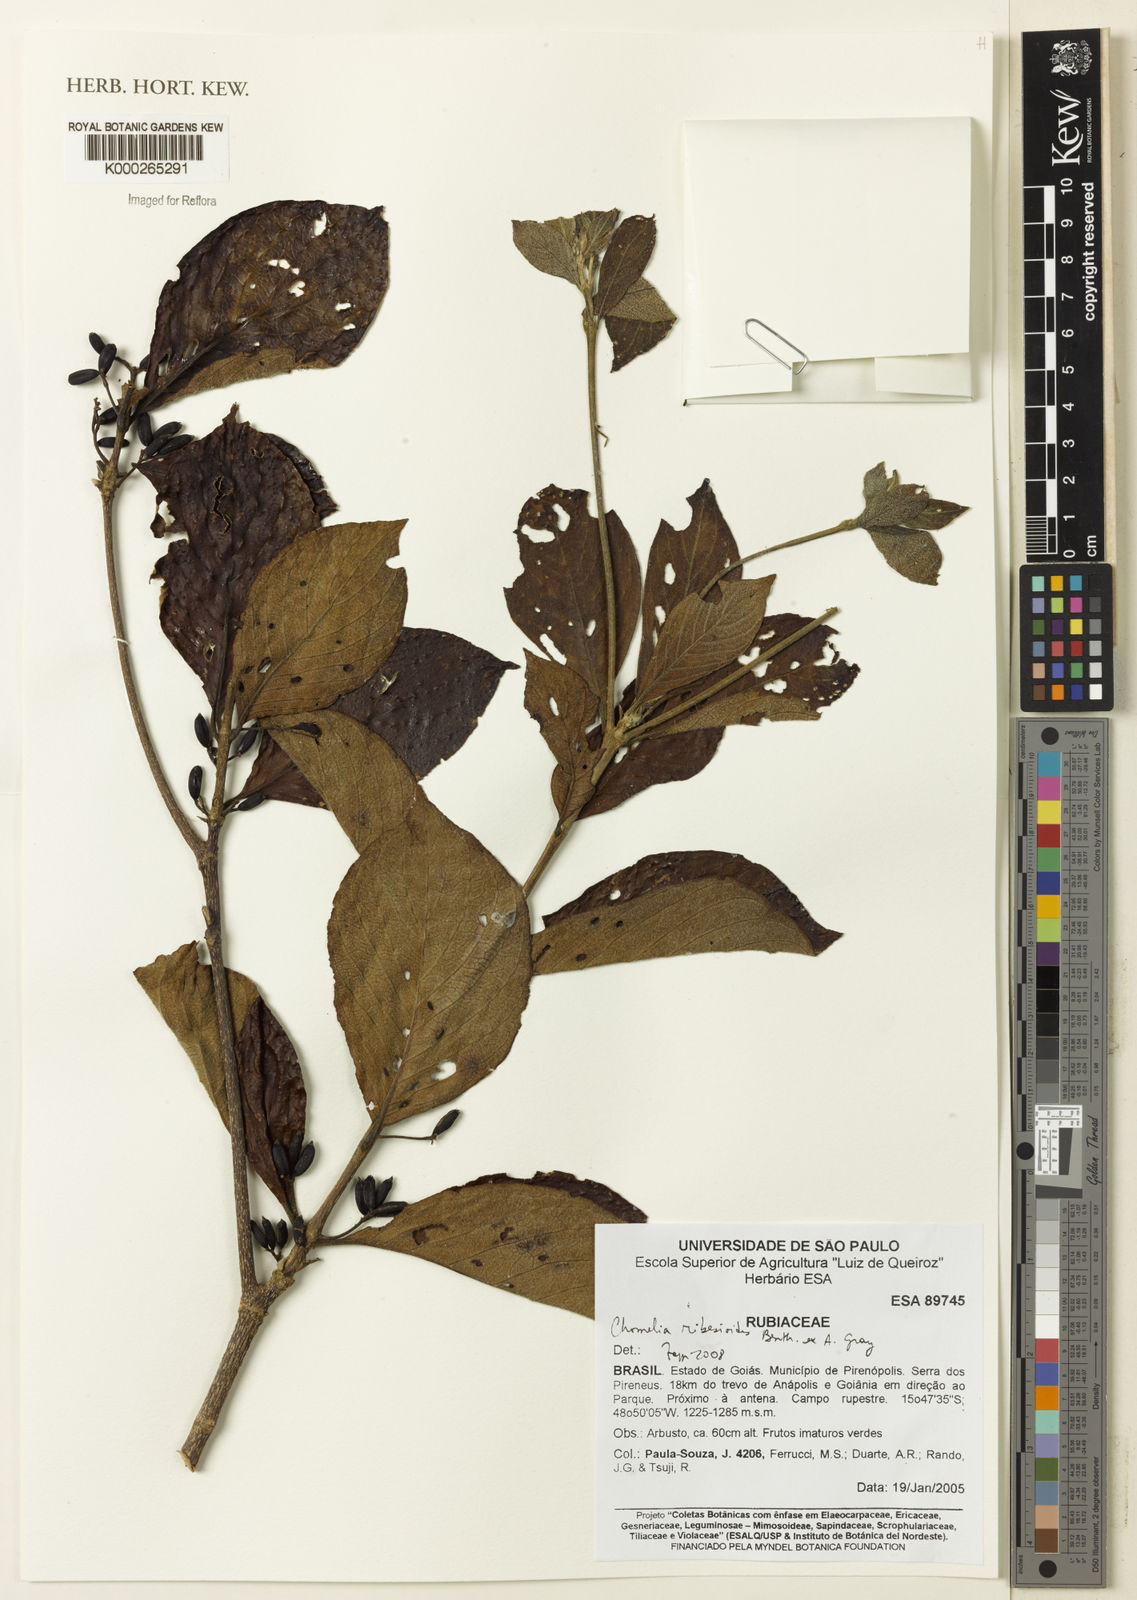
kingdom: Plantae
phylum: Tracheophyta
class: Magnoliopsida
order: Gentianales
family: Rubiaceae
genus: Chomelia
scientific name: Chomelia ribesioides
